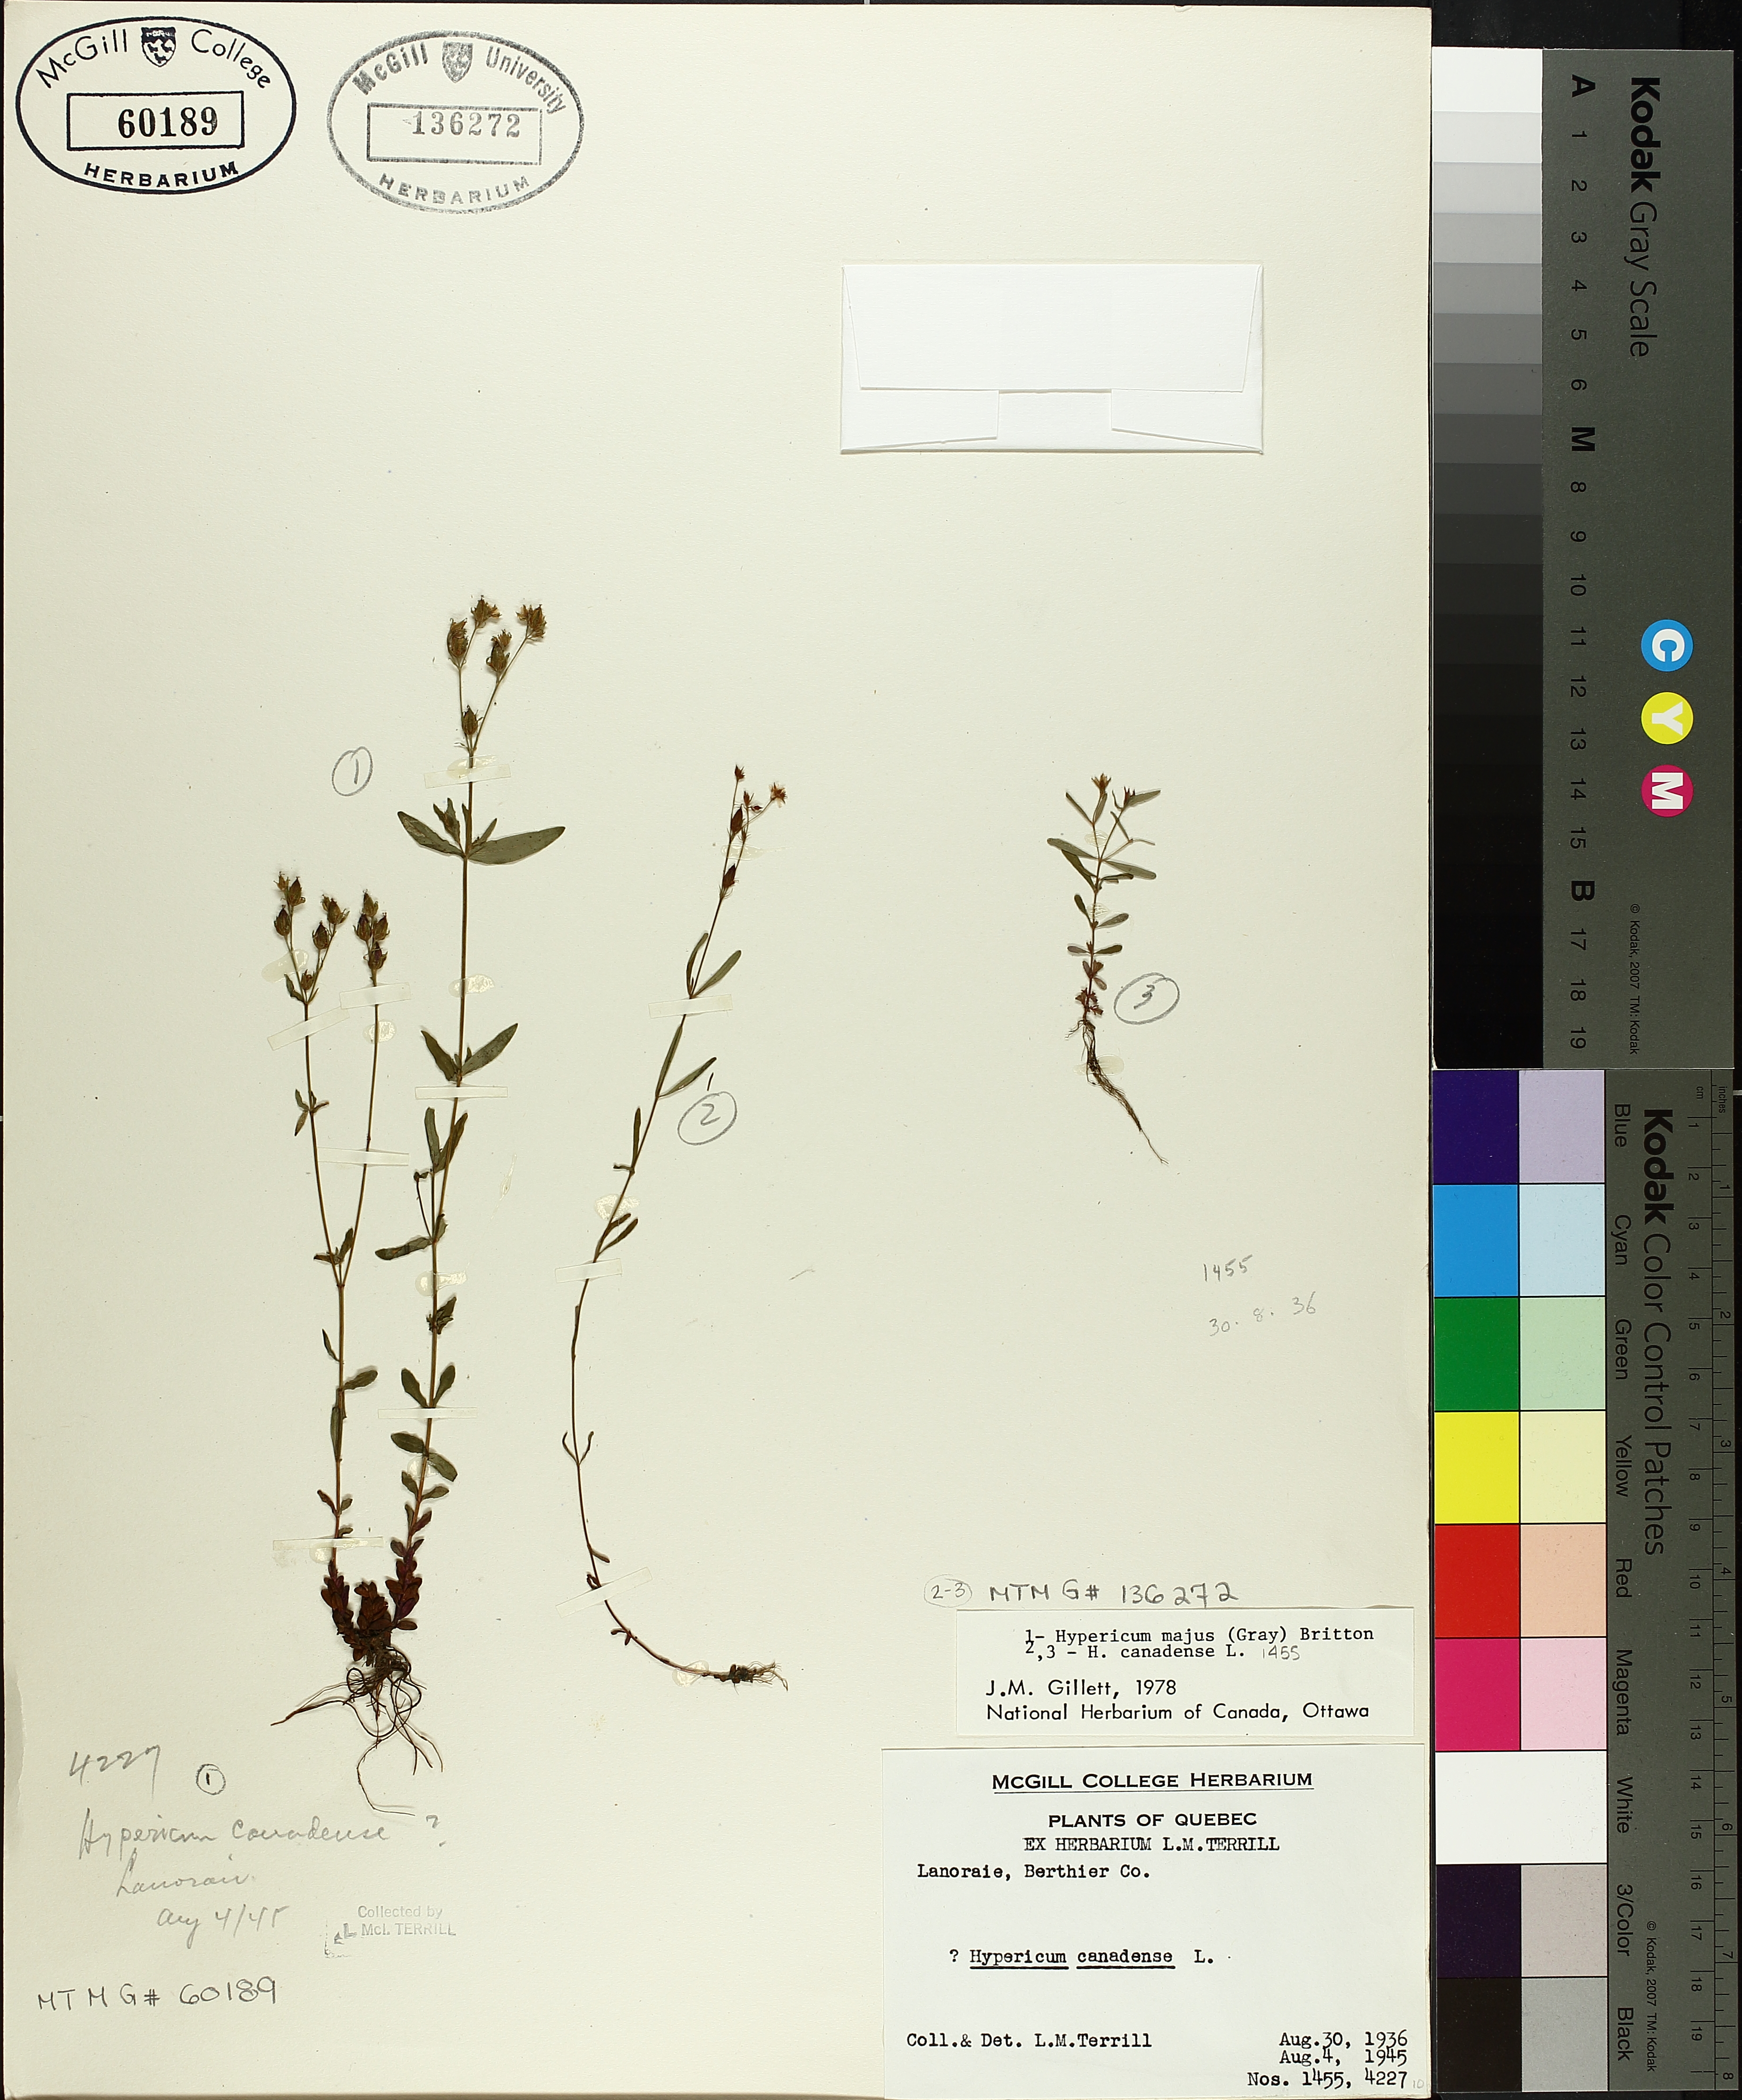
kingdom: Plantae
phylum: Tracheophyta
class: Magnoliopsida
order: Malpighiales
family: Hypericaceae
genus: Hypericum
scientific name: Hypericum canadense
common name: Irish st. john's-wort
